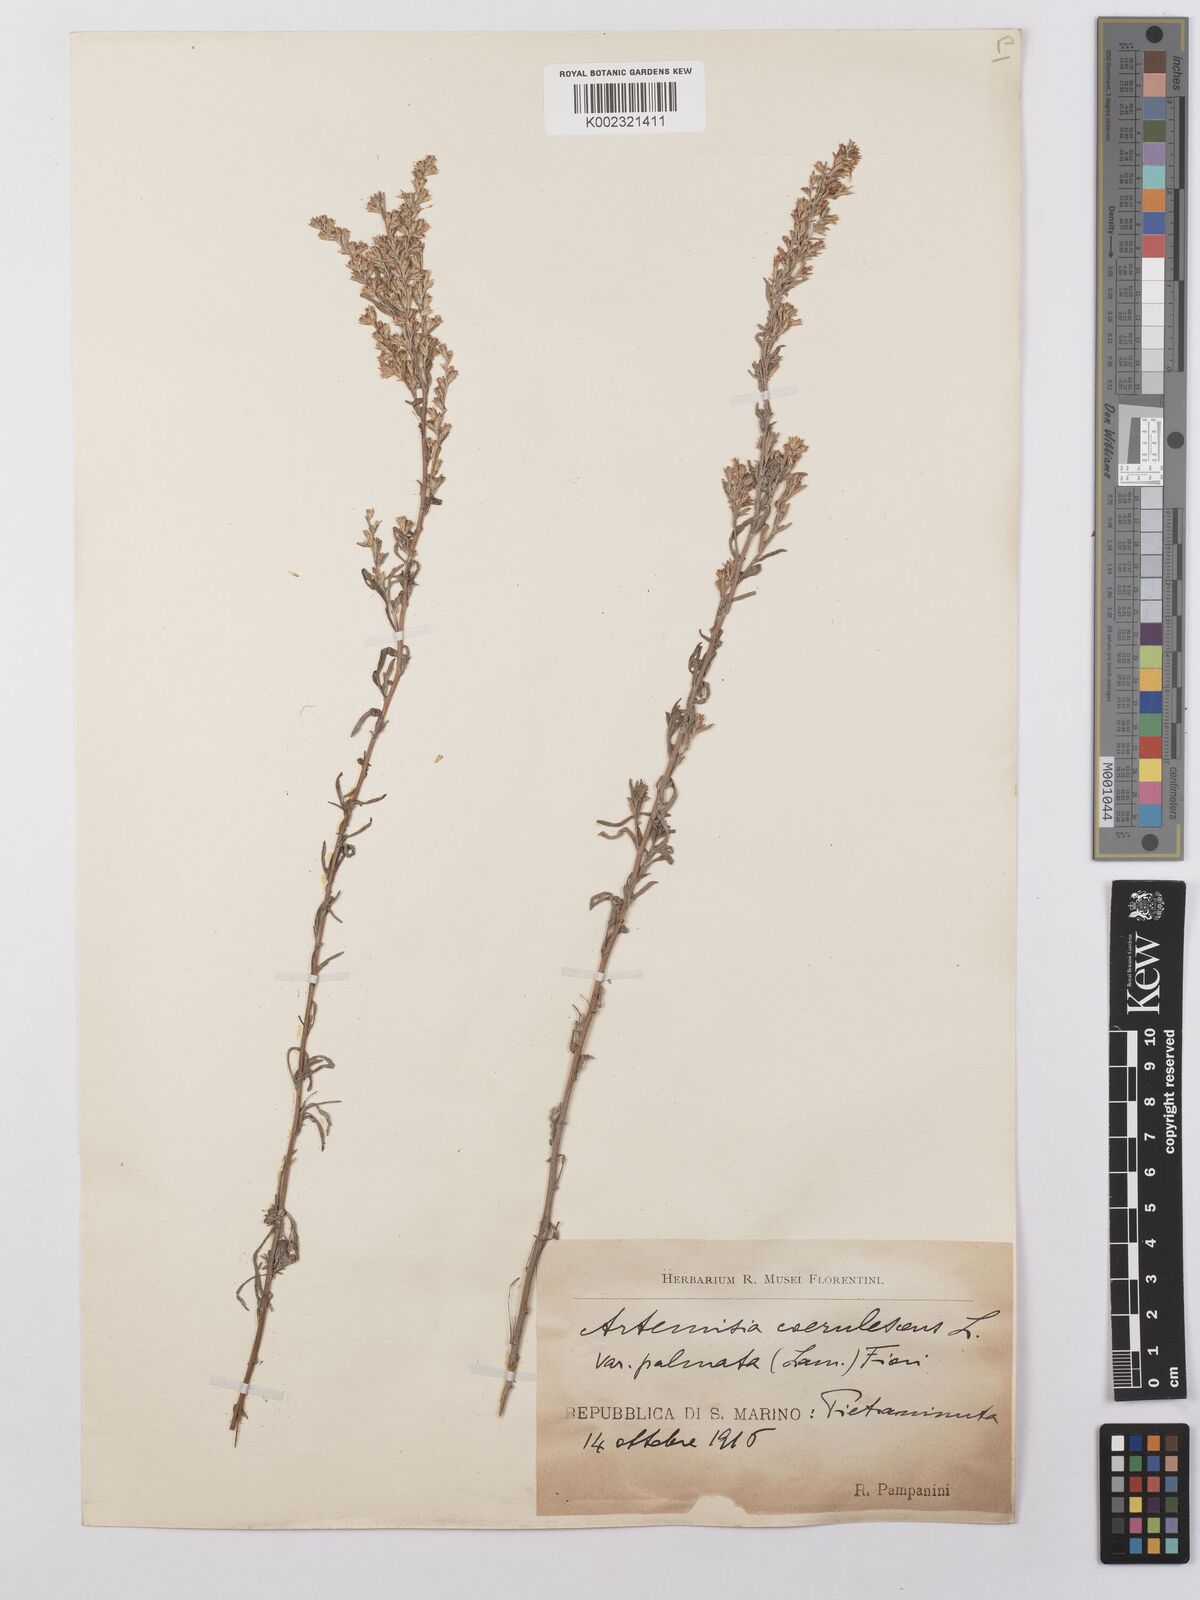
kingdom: Plantae
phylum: Tracheophyta
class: Magnoliopsida
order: Asterales
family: Asteraceae
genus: Artemisia
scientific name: Artemisia caerulescens
